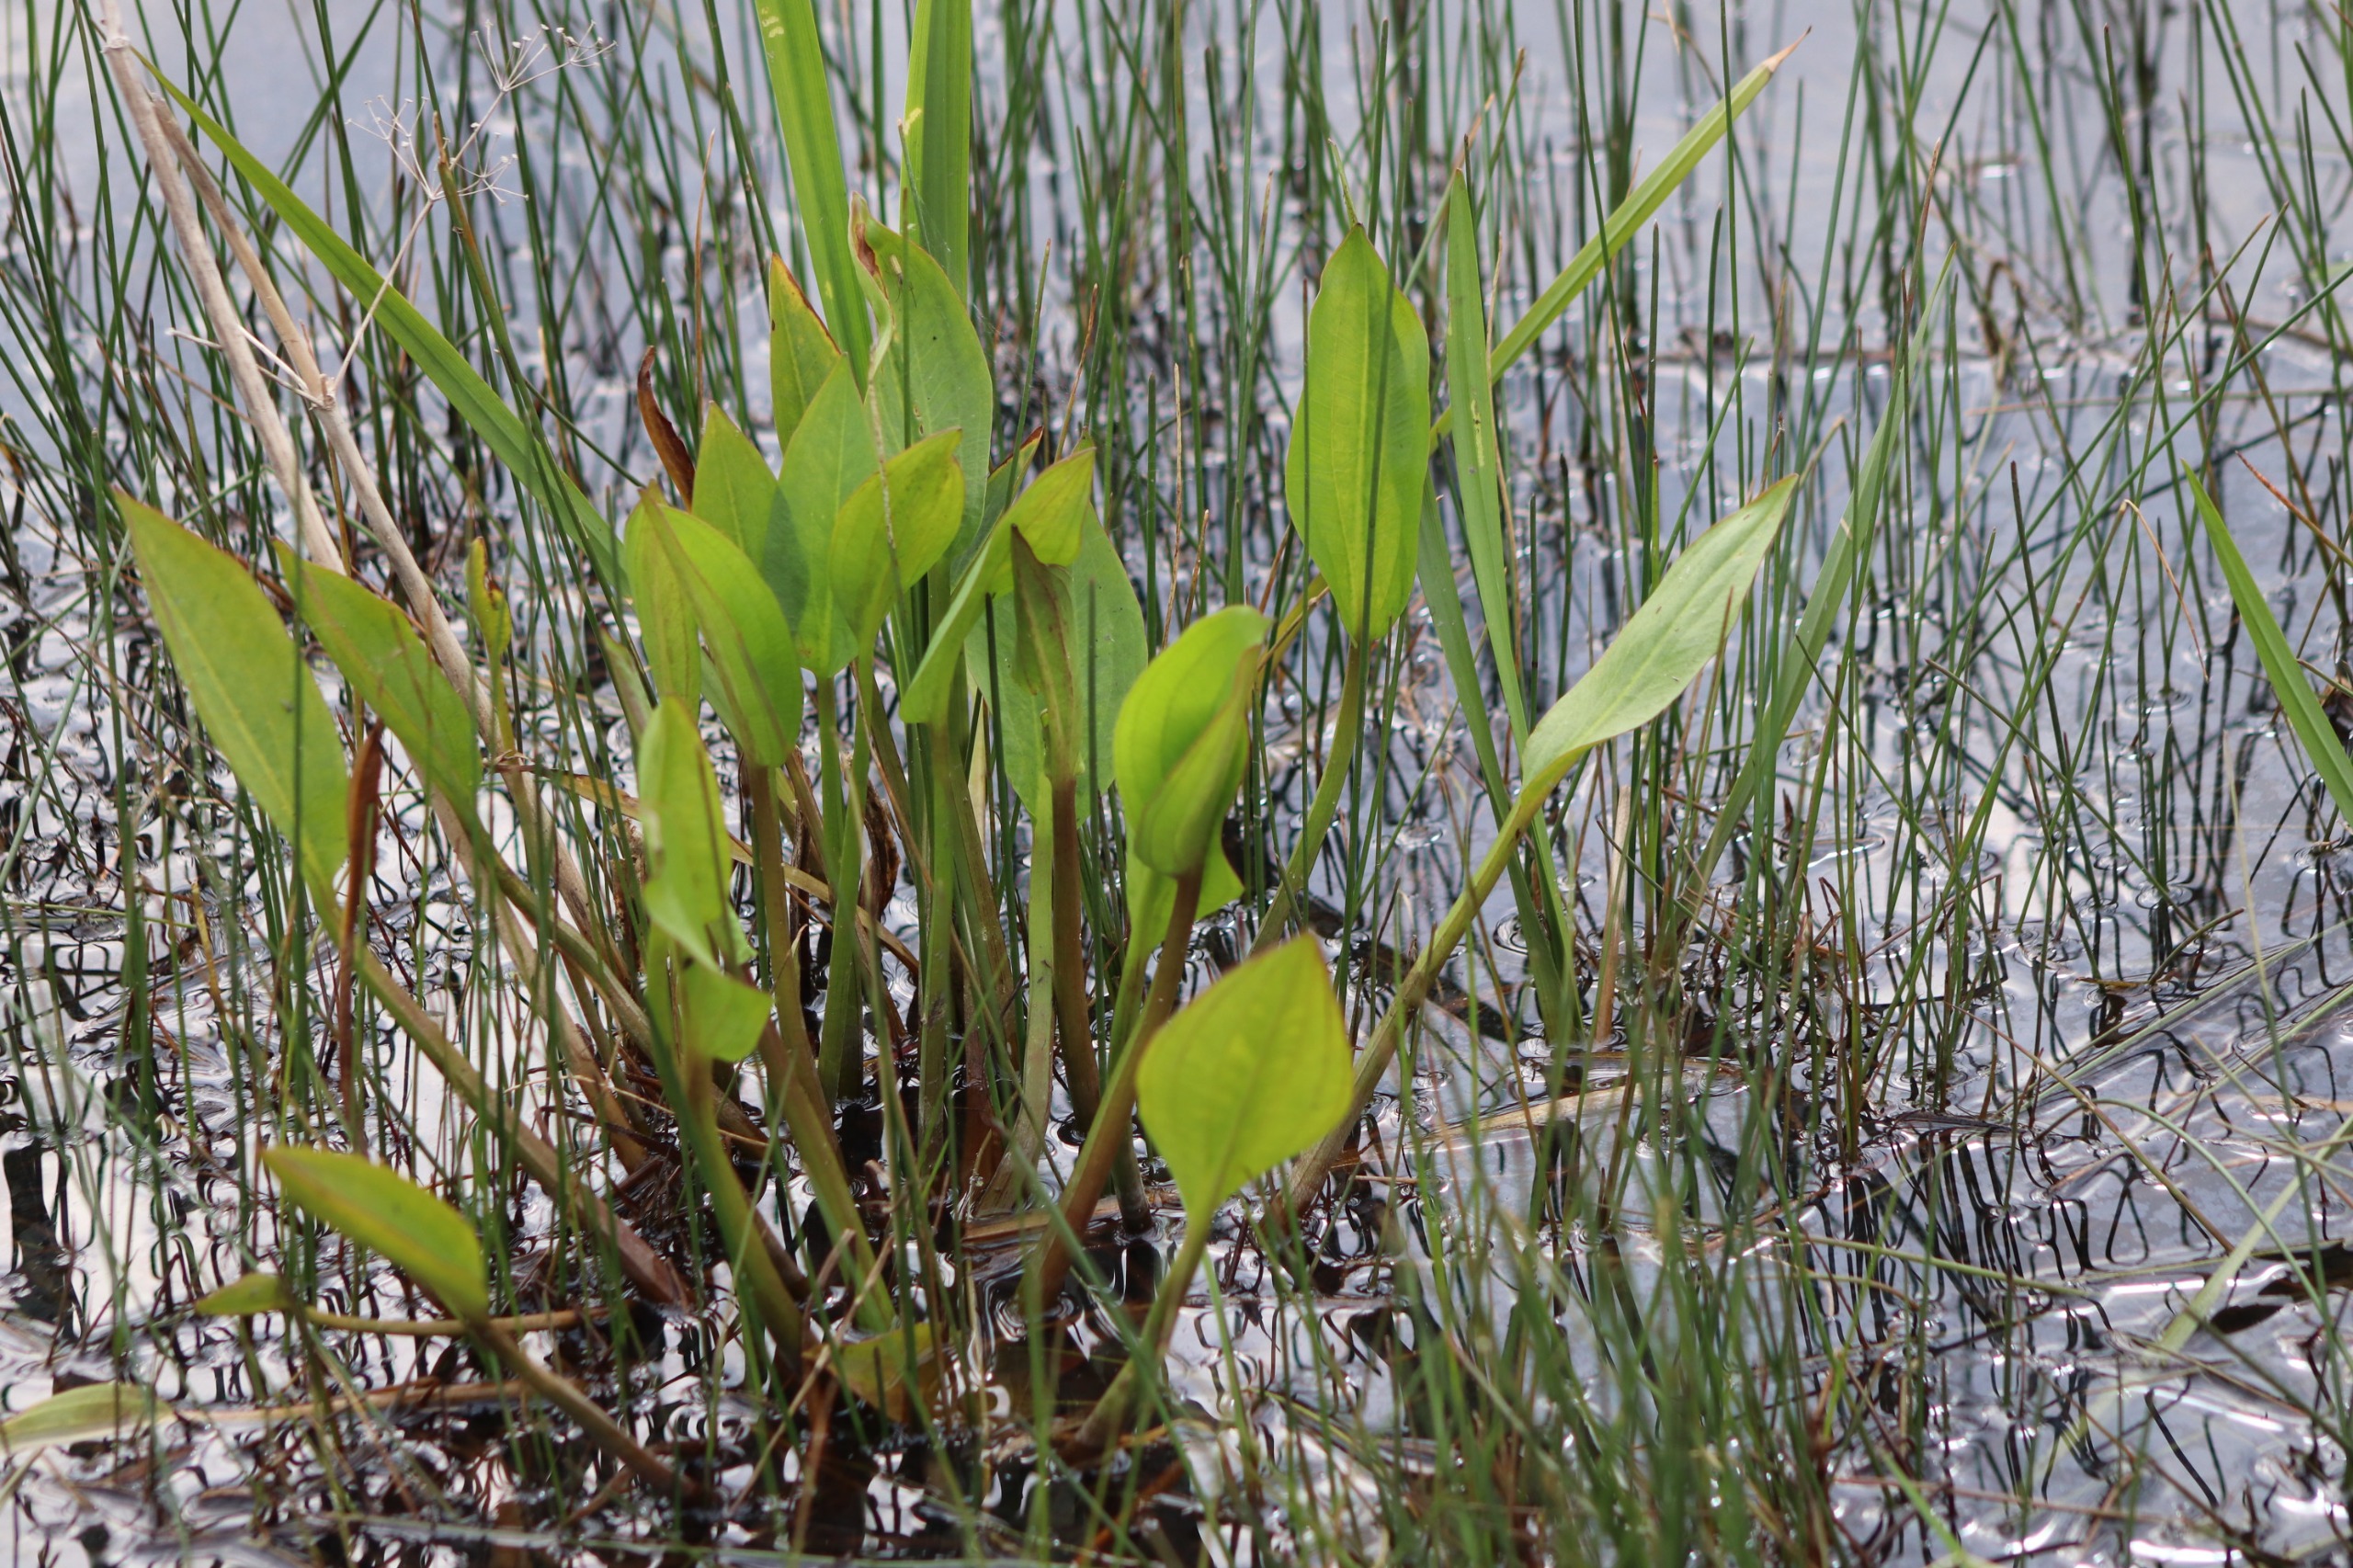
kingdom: Plantae
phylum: Tracheophyta
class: Liliopsida
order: Alismatales
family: Alismataceae
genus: Alisma
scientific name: Alisma plantago-aquatica
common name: Vejbred-skeblad
